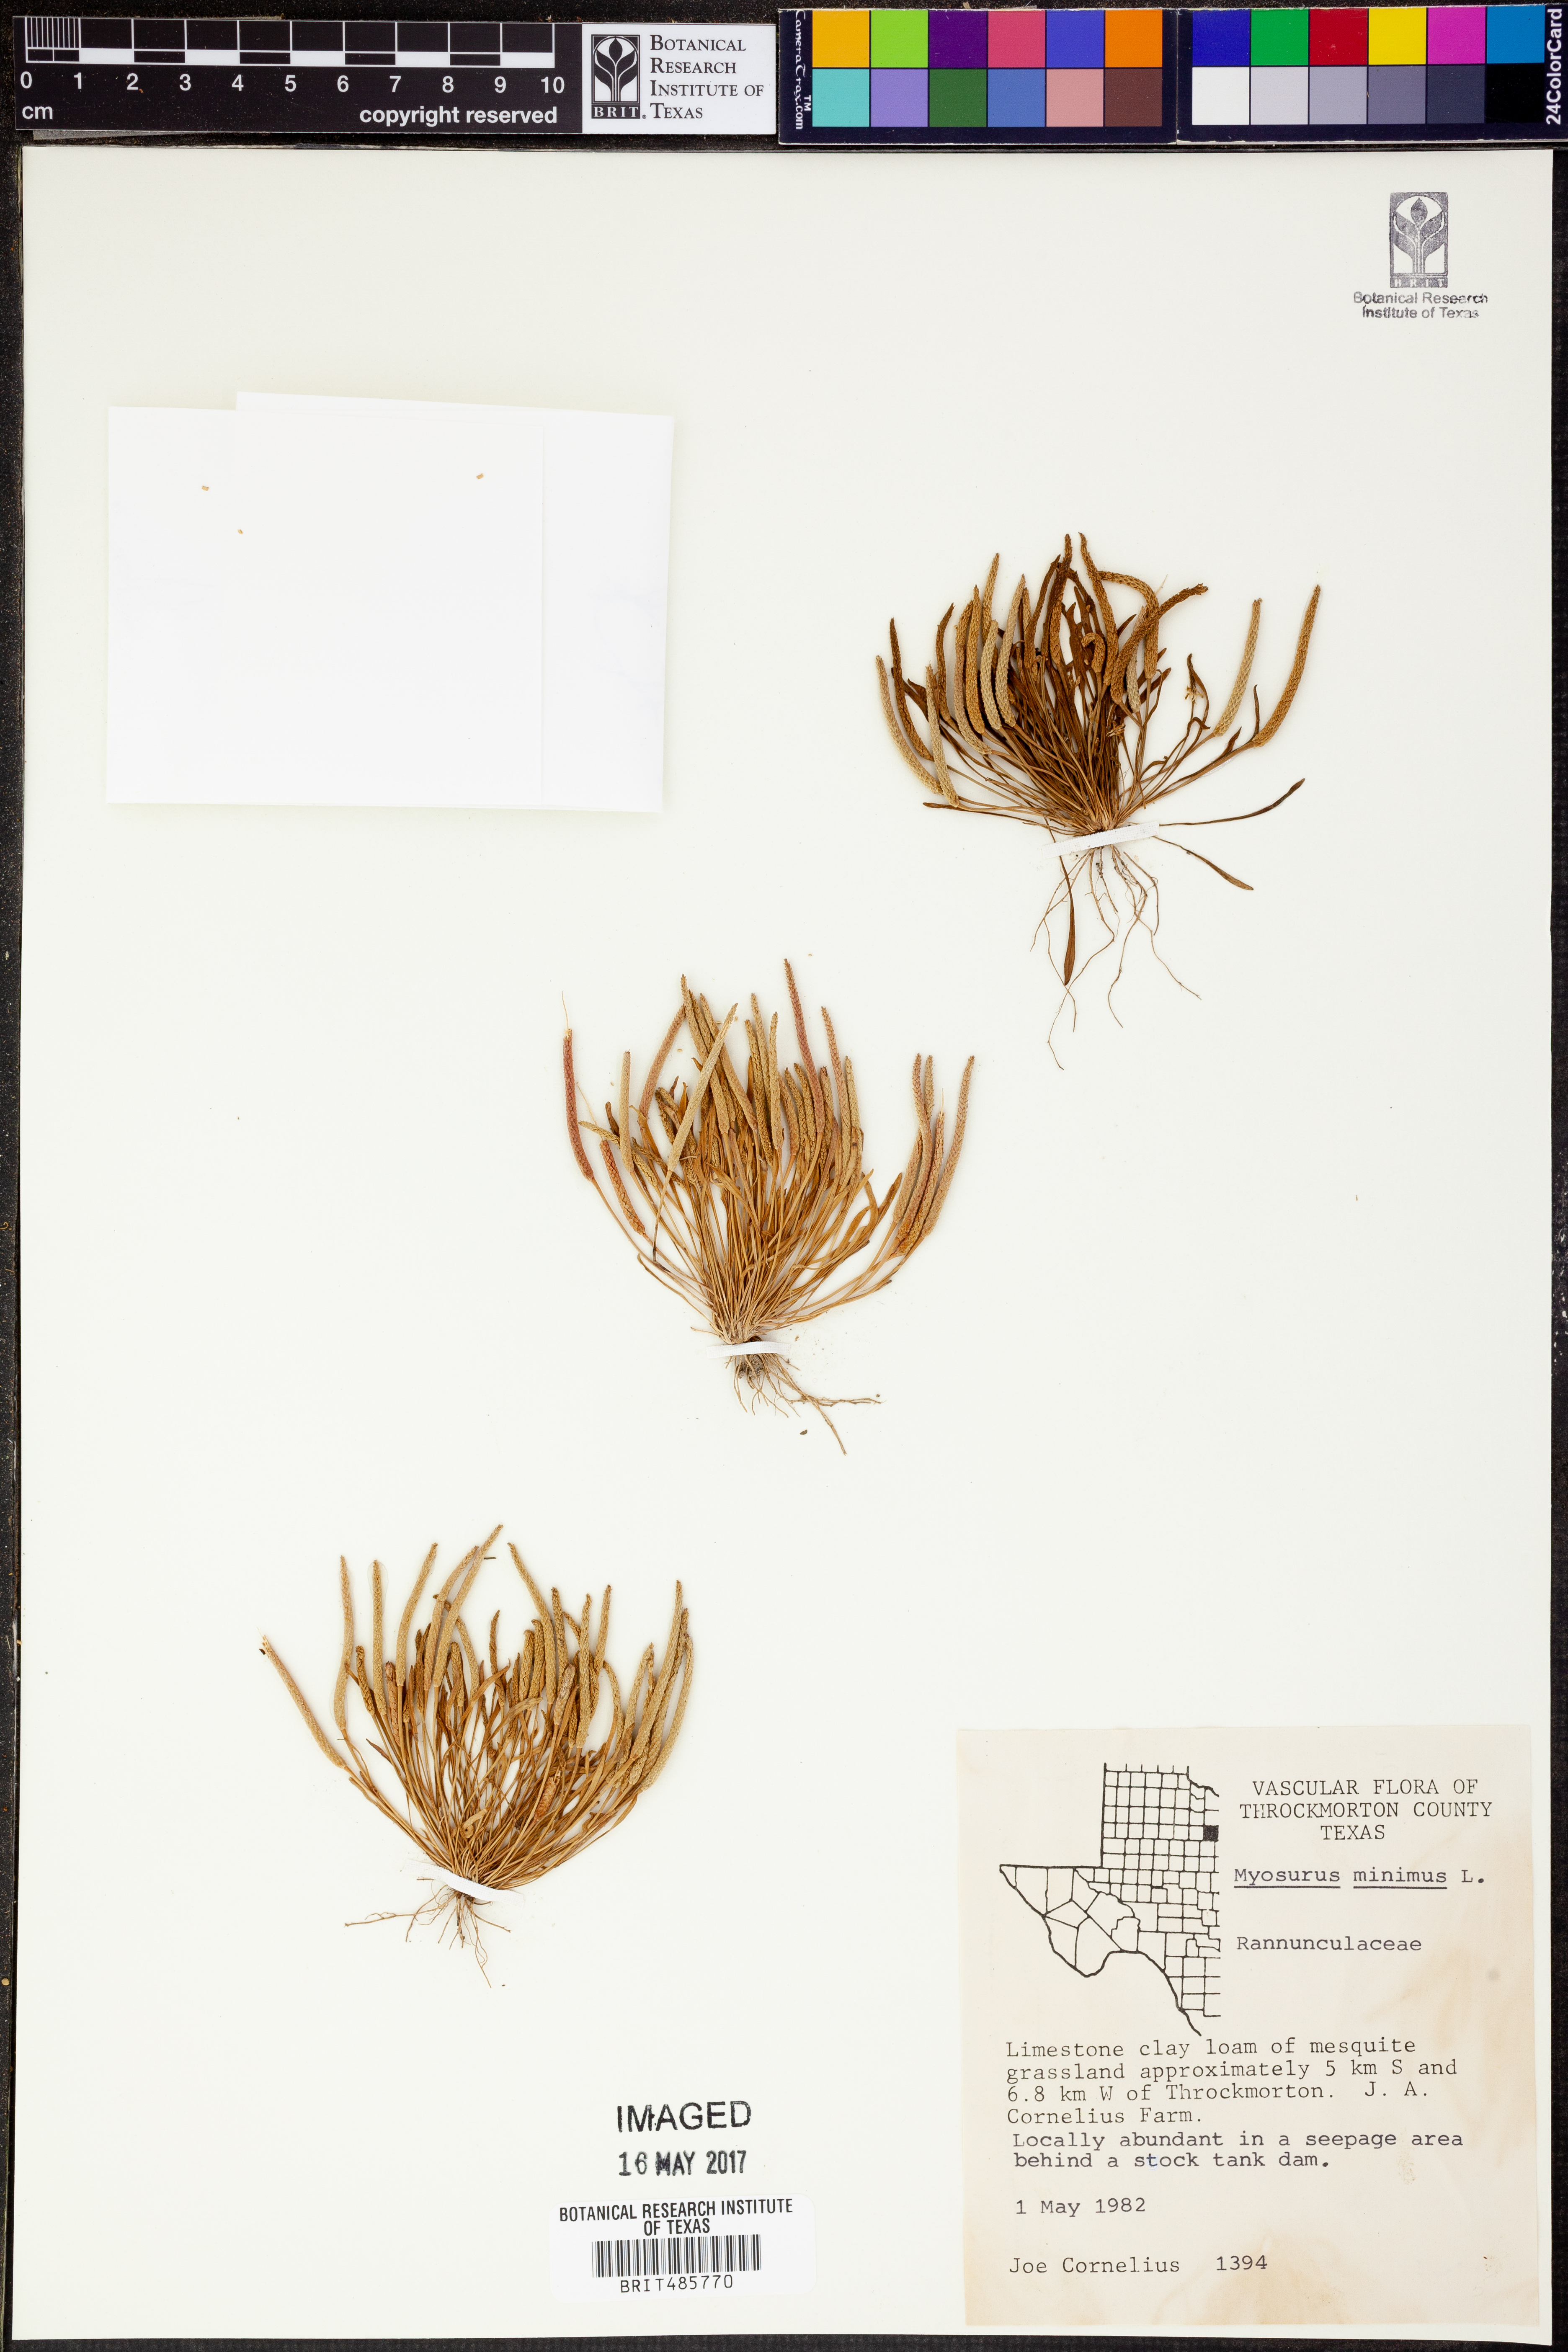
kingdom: Plantae
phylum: Tracheophyta
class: Magnoliopsida
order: Ranunculales
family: Ranunculaceae
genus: Myosurus
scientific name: Myosurus minimus
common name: Mousetail
